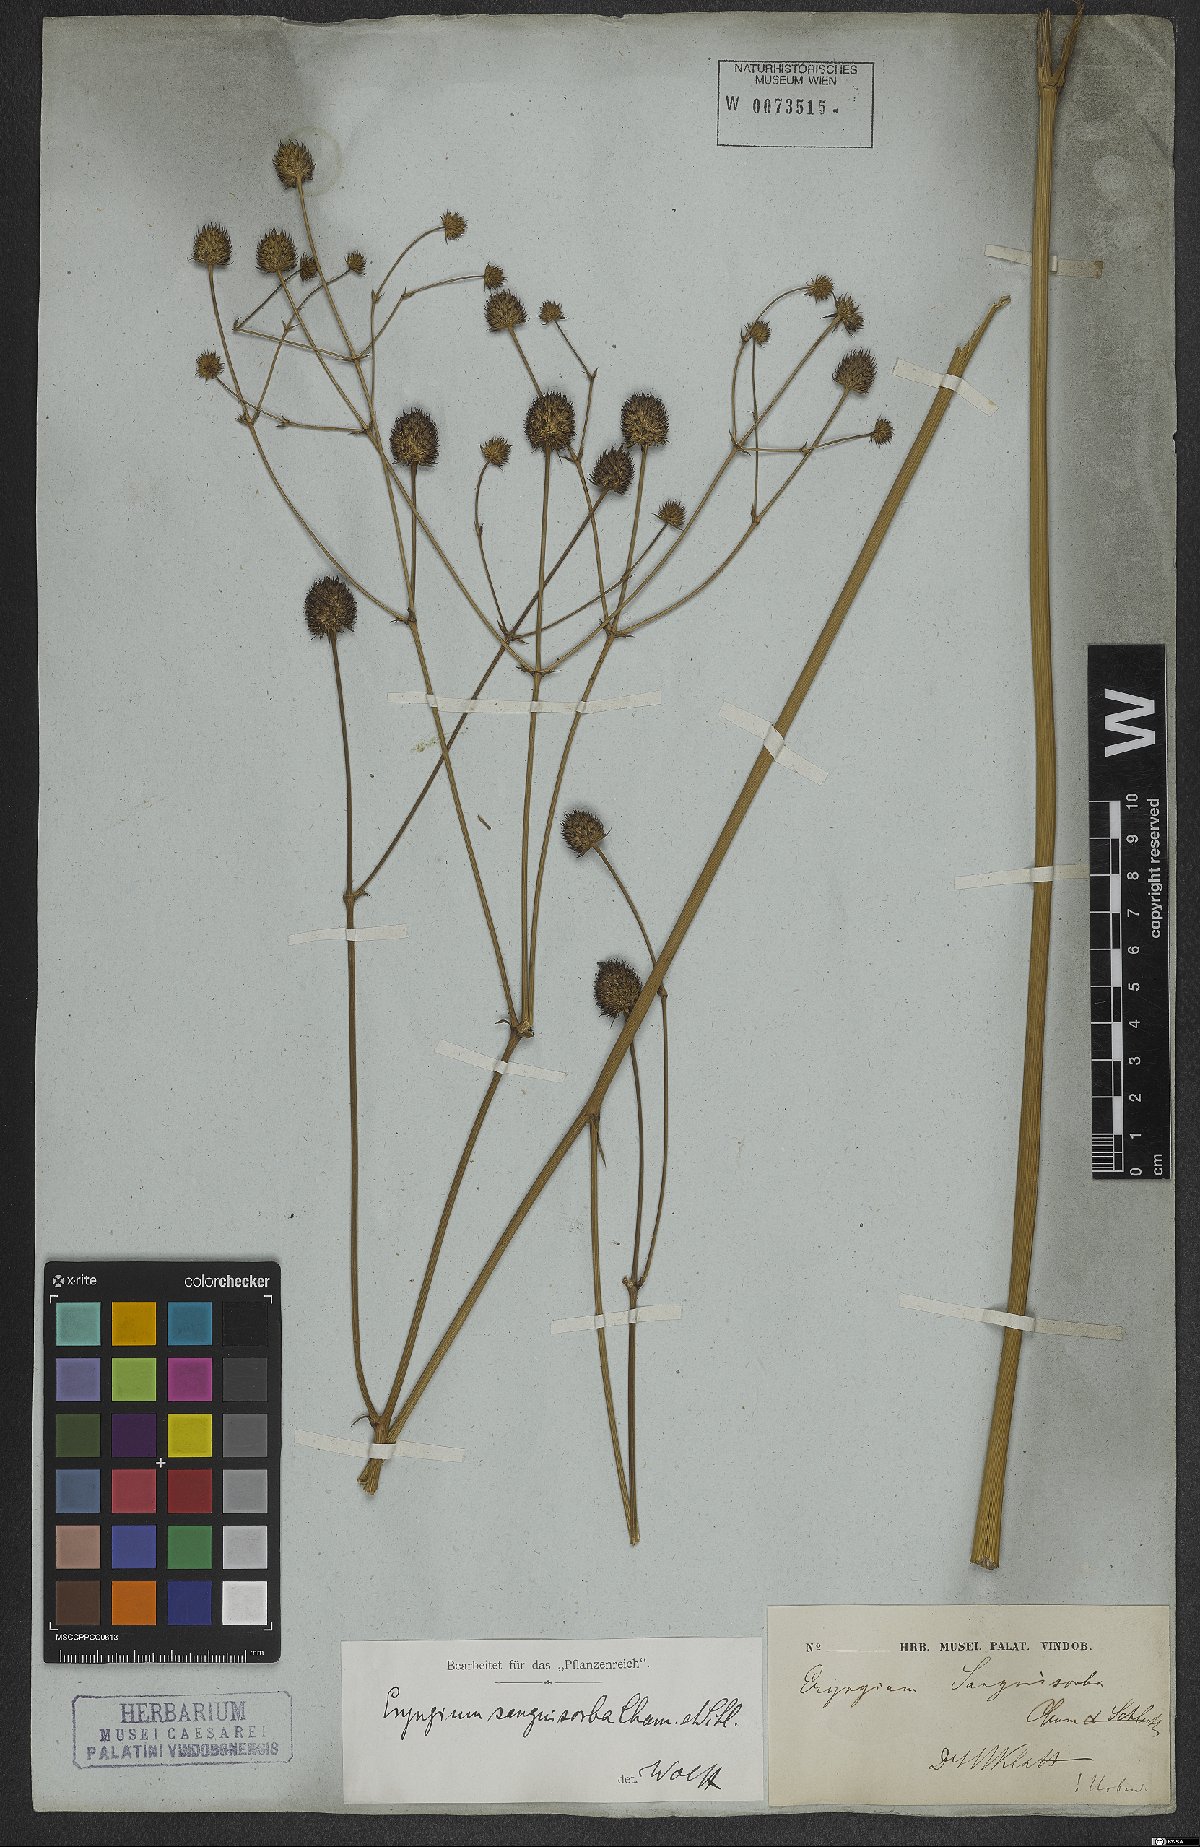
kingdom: Plantae
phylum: Tracheophyta
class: Magnoliopsida
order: Apiales
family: Apiaceae
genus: Eryngium
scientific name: Eryngium sanguisorba
